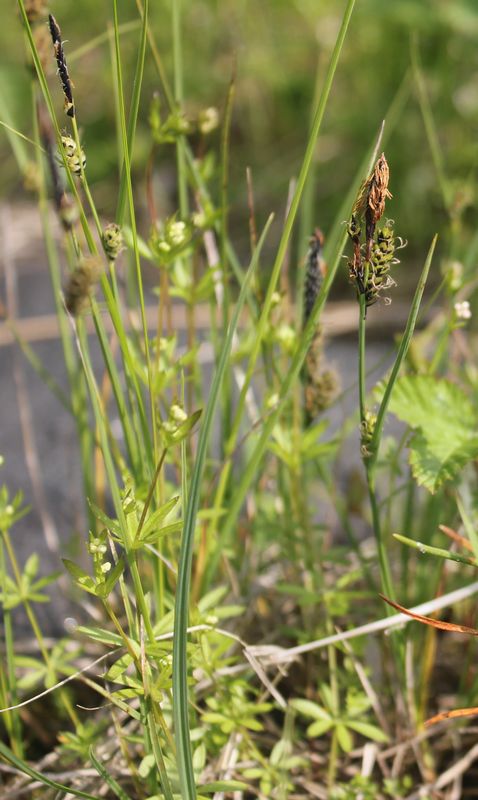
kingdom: Plantae
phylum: Tracheophyta
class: Liliopsida
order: Poales
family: Cyperaceae
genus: Carex
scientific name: Carex nigra
